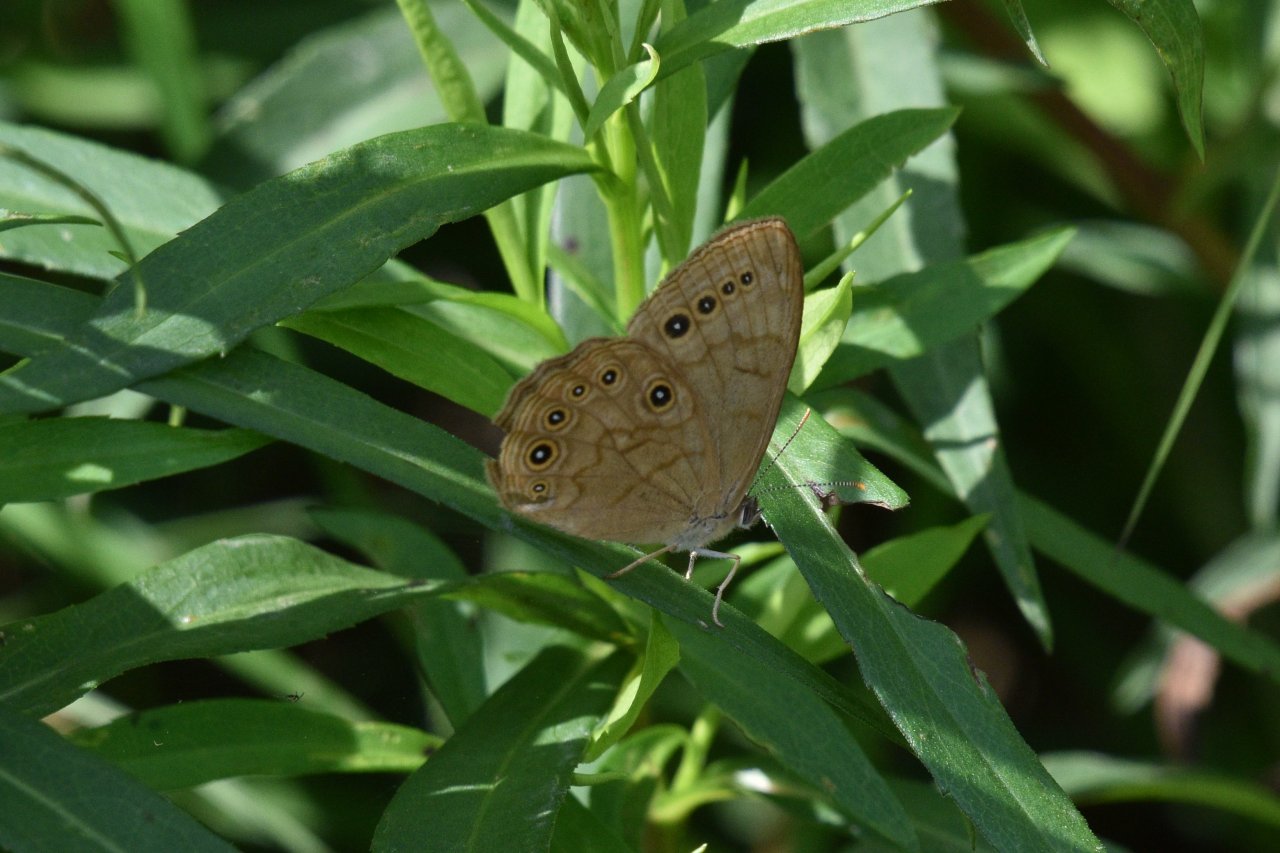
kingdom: Animalia
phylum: Arthropoda
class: Insecta
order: Lepidoptera
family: Nymphalidae
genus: Lethe
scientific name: Lethe eurydice
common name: Eyed Brown
